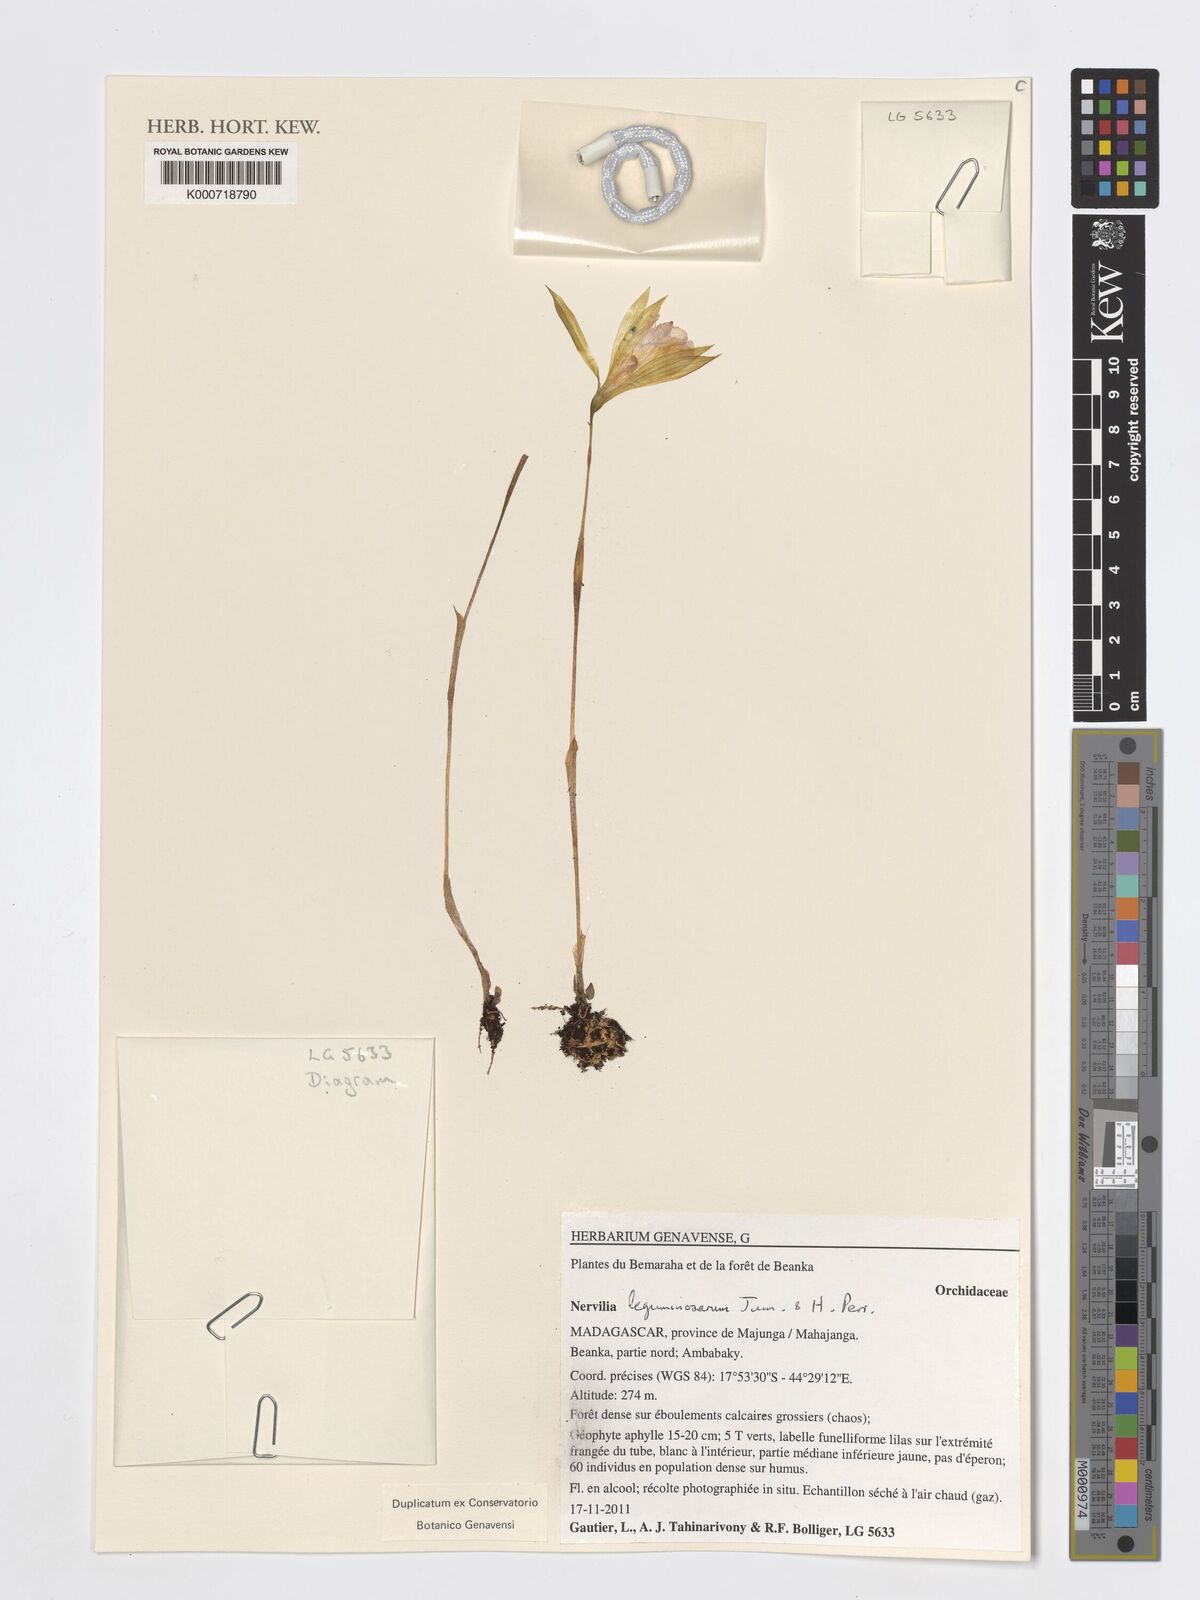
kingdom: Plantae
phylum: Tracheophyta
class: Liliopsida
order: Asparagales
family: Orchidaceae
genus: Nervilia
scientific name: Nervilia leguminosarum
